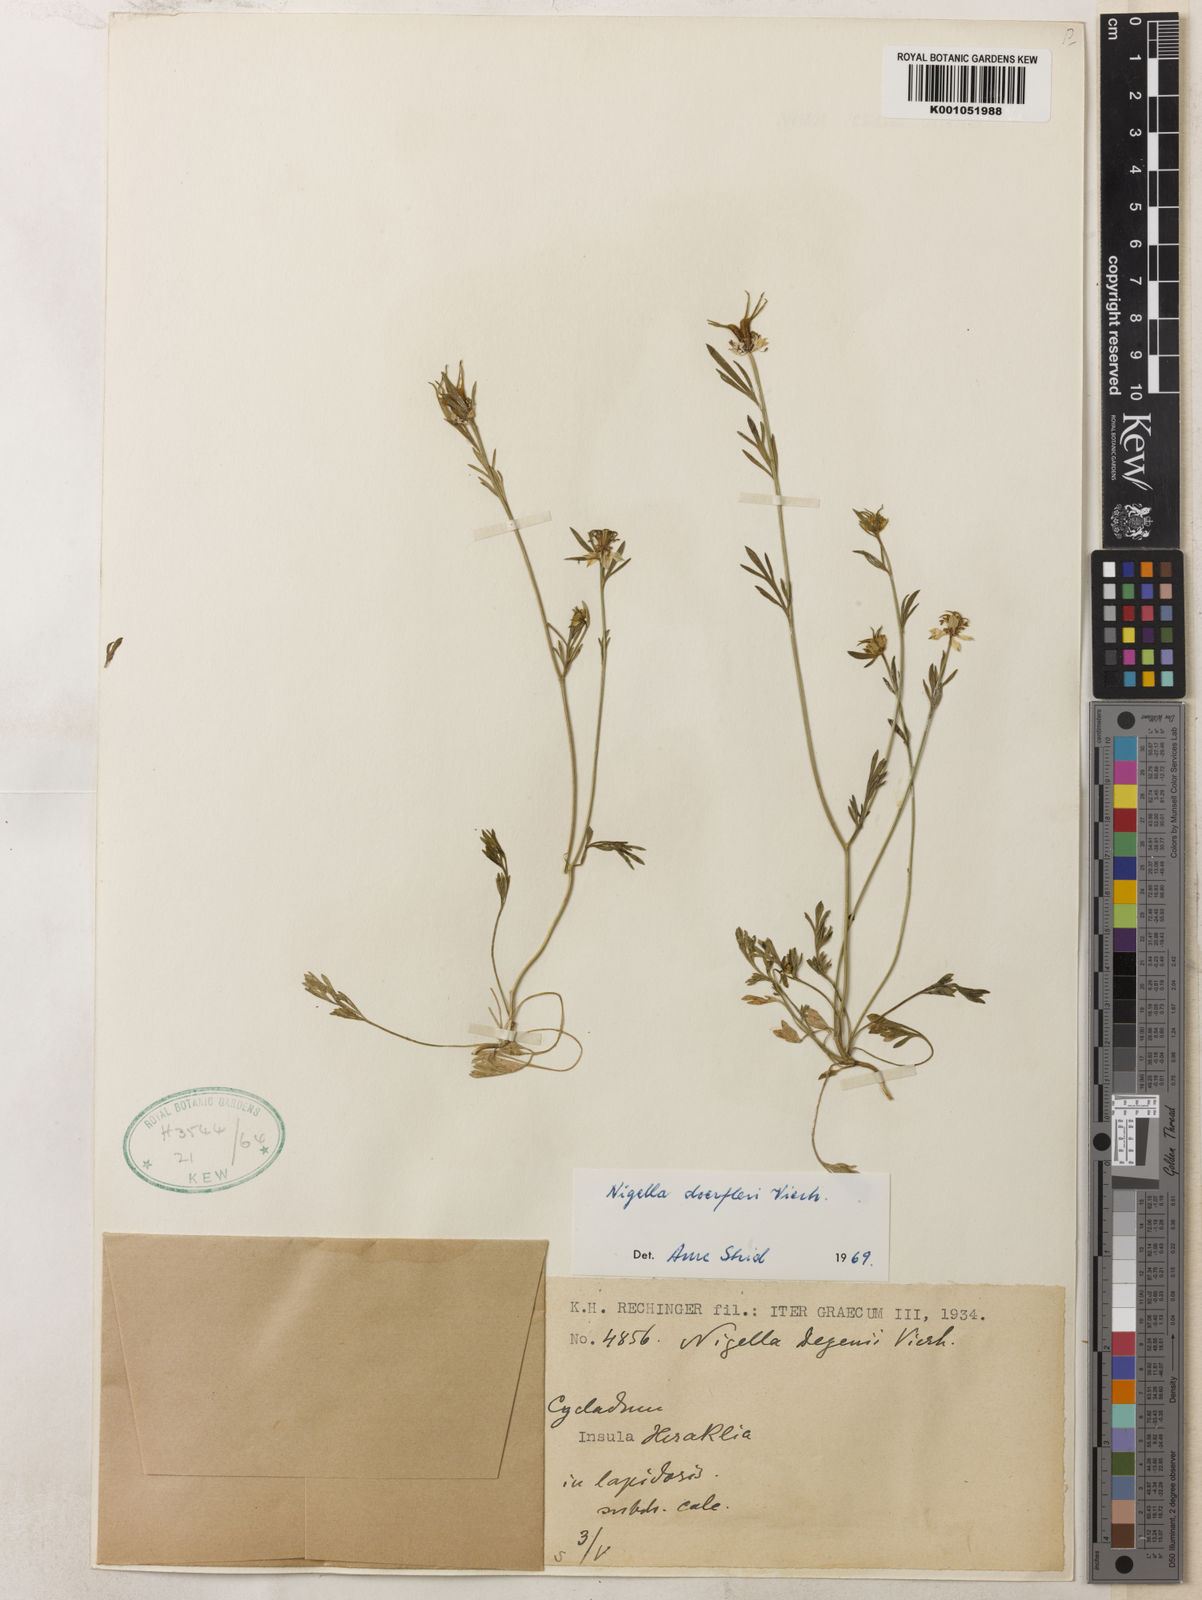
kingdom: Plantae
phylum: Tracheophyta
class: Magnoliopsida
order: Ranunculales
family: Ranunculaceae
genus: Nigella
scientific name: Nigella arvensis
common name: Wild fennel-flower
